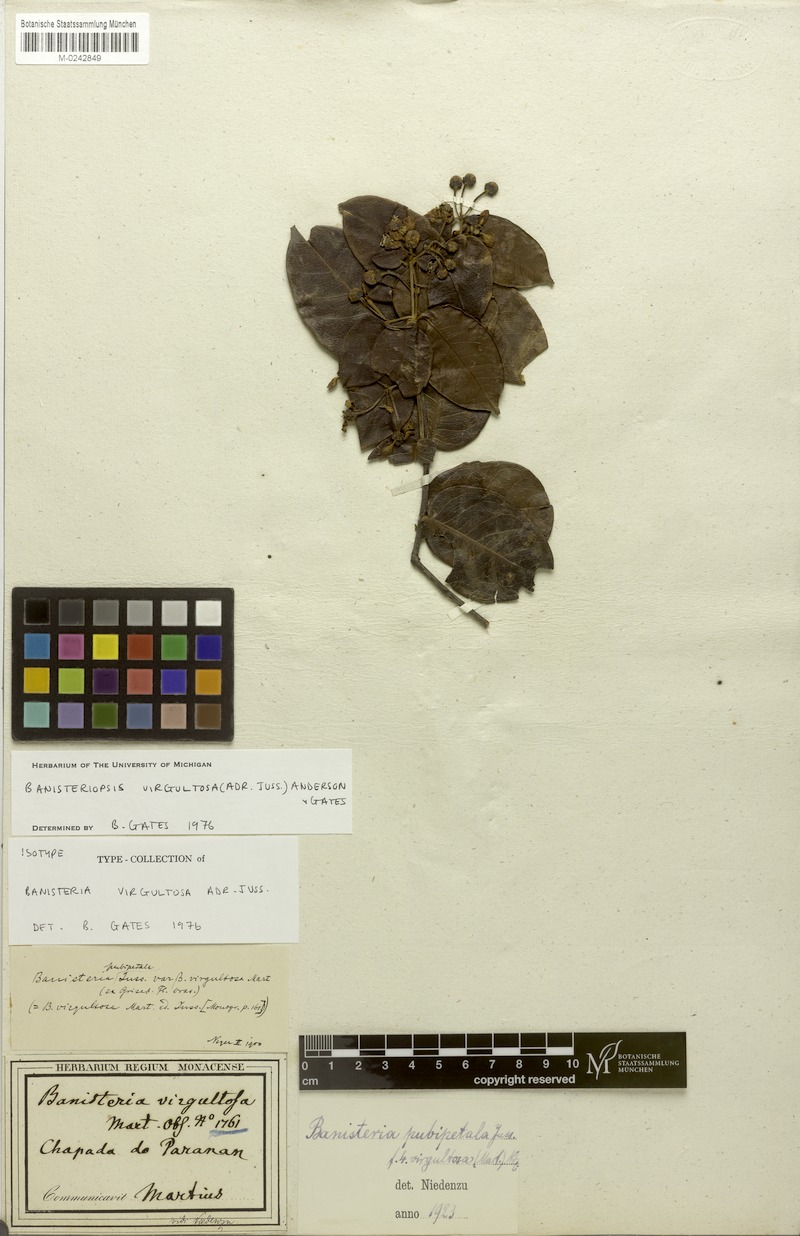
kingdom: Plantae
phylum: Tracheophyta
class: Magnoliopsida
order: Malpighiales
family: Malpighiaceae
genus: Diplopterys
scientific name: Diplopterys virgultosa
